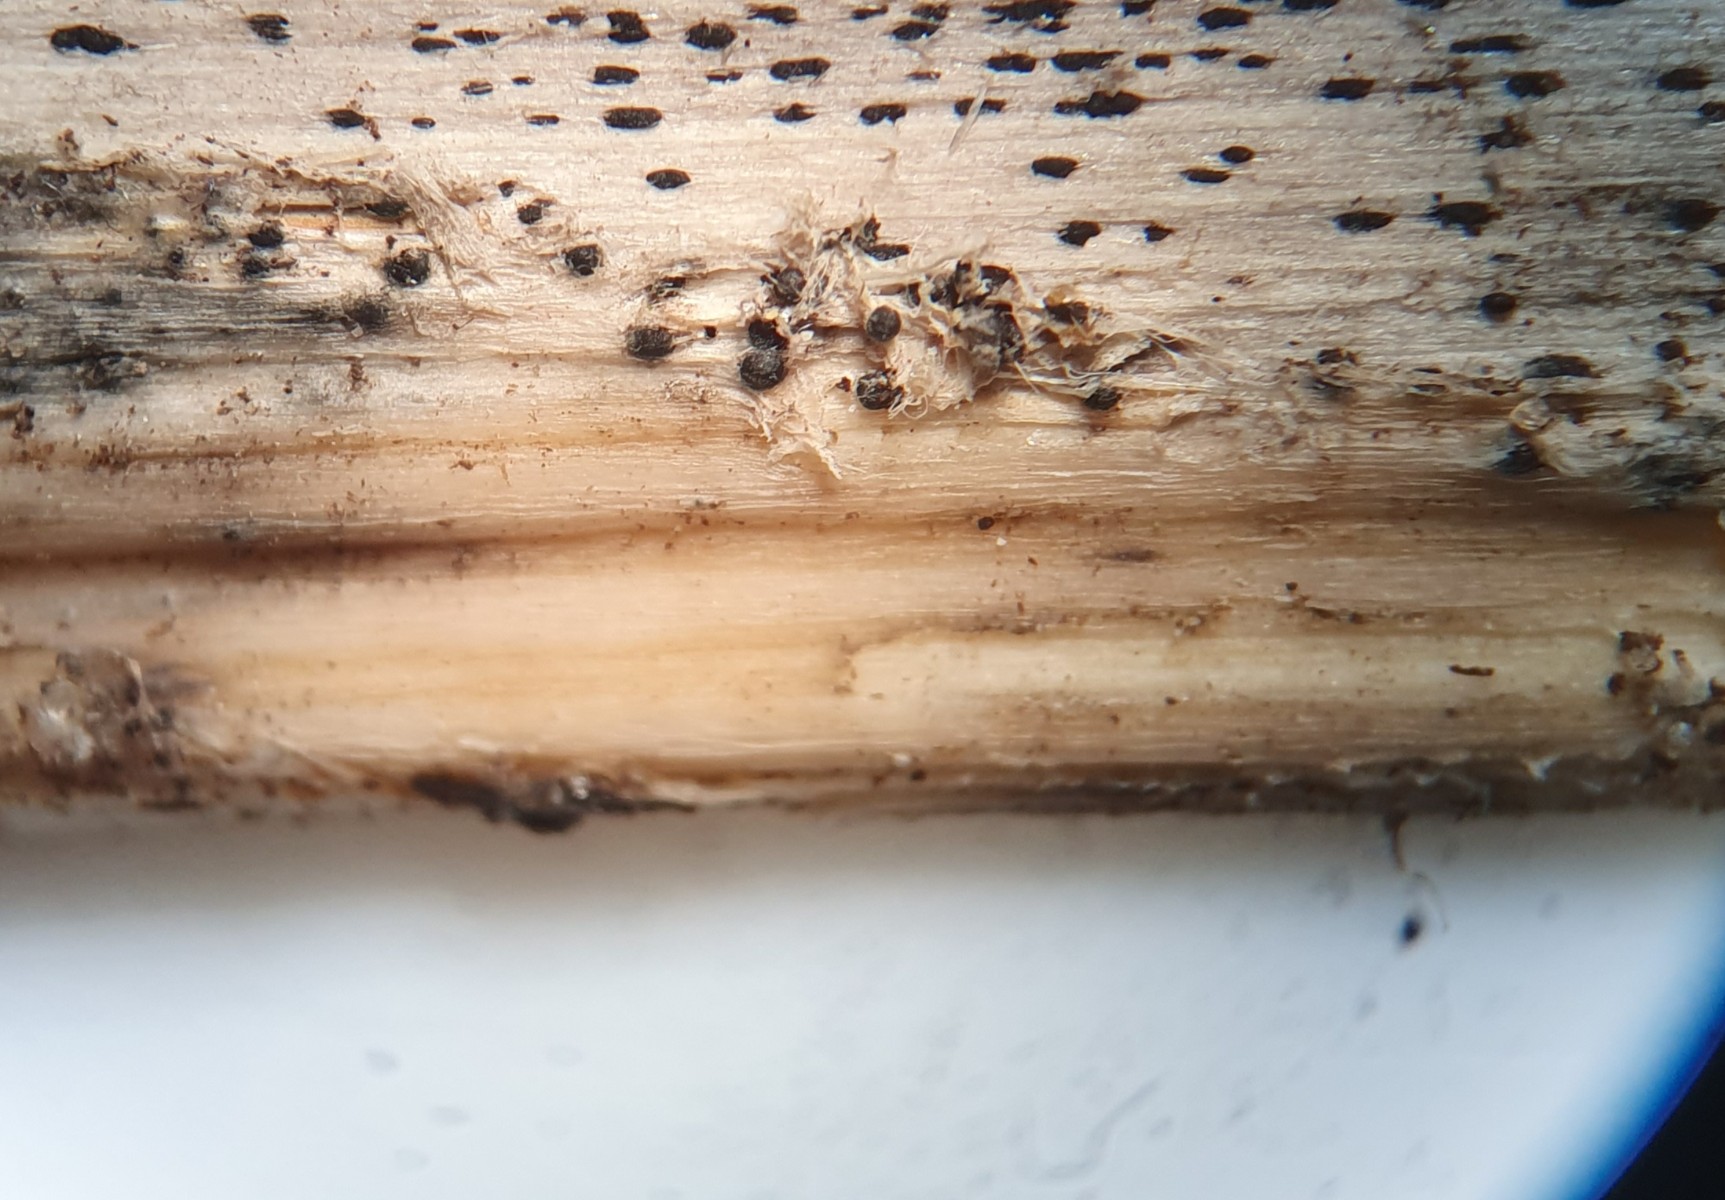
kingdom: Fungi
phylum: Ascomycota
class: Dothideomycetes
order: Pleosporales
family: Pleosporaceae
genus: Stemphylium
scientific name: Stemphylium vesicarium
